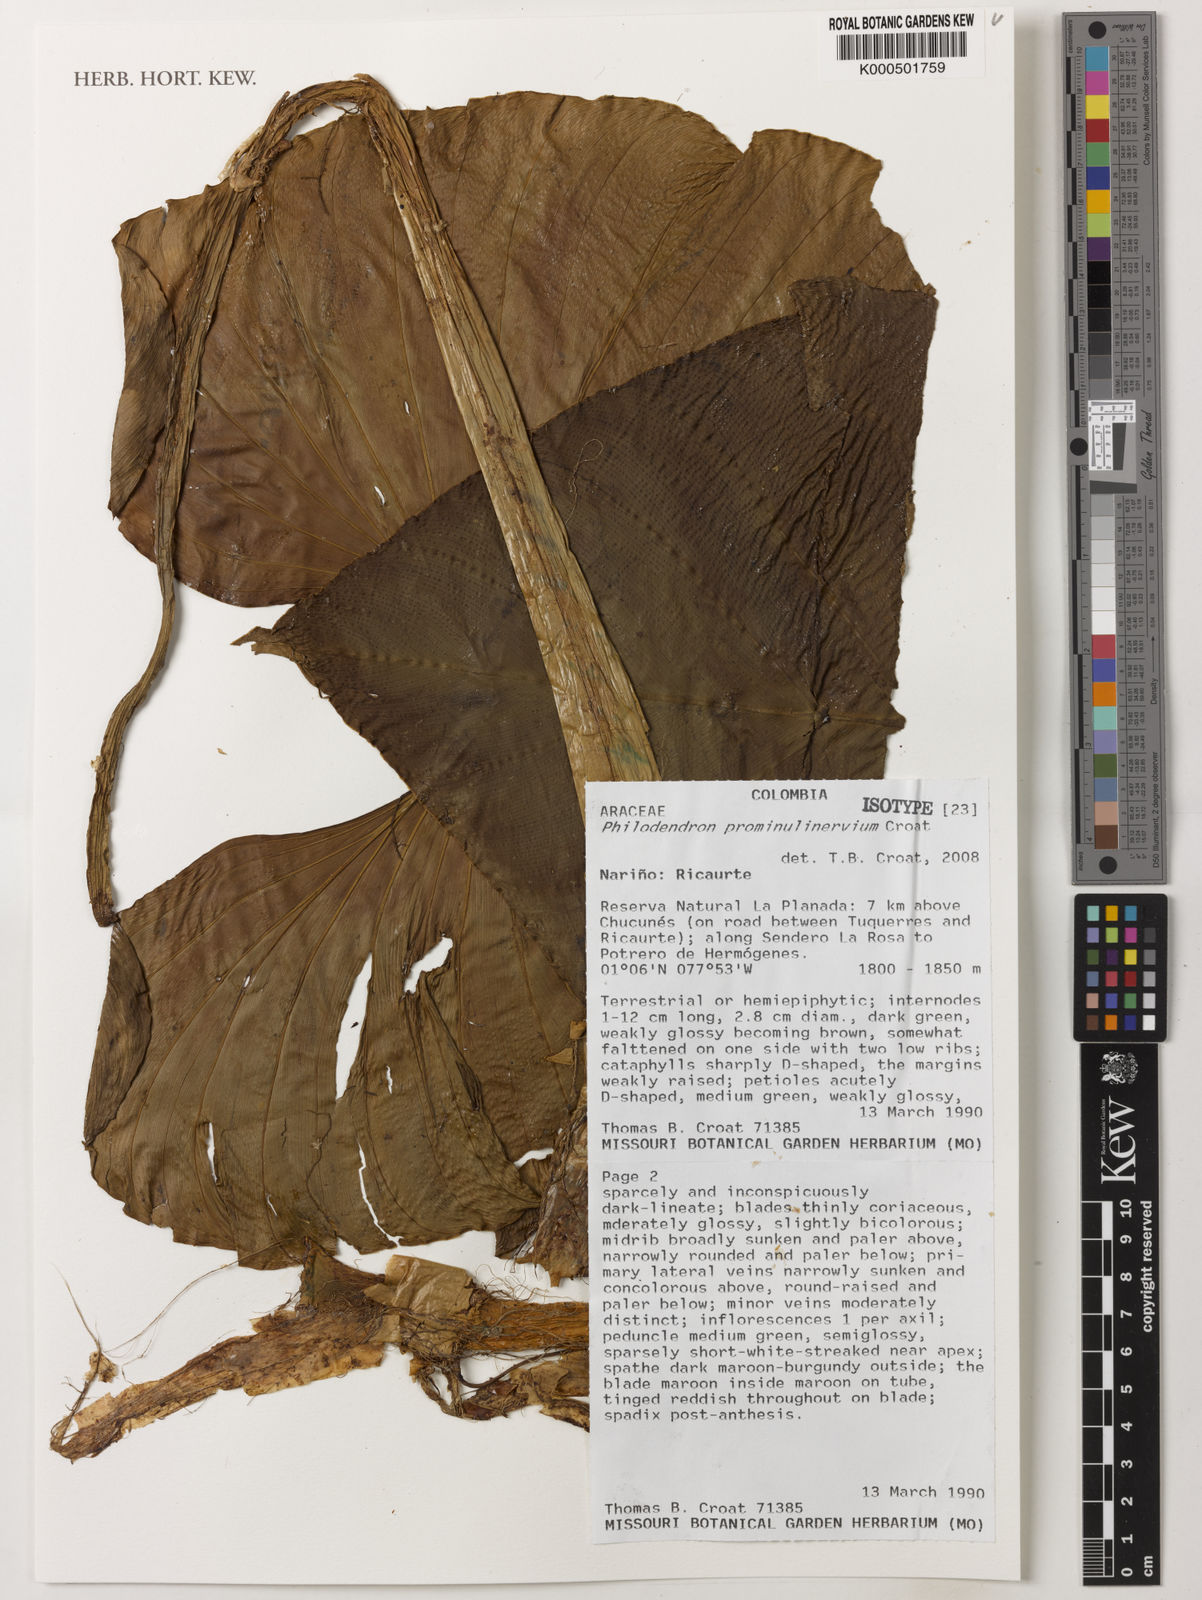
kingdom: Plantae
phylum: Tracheophyta
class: Liliopsida
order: Alismatales
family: Araceae
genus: Philodendron
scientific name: Philodendron prominulinervium
